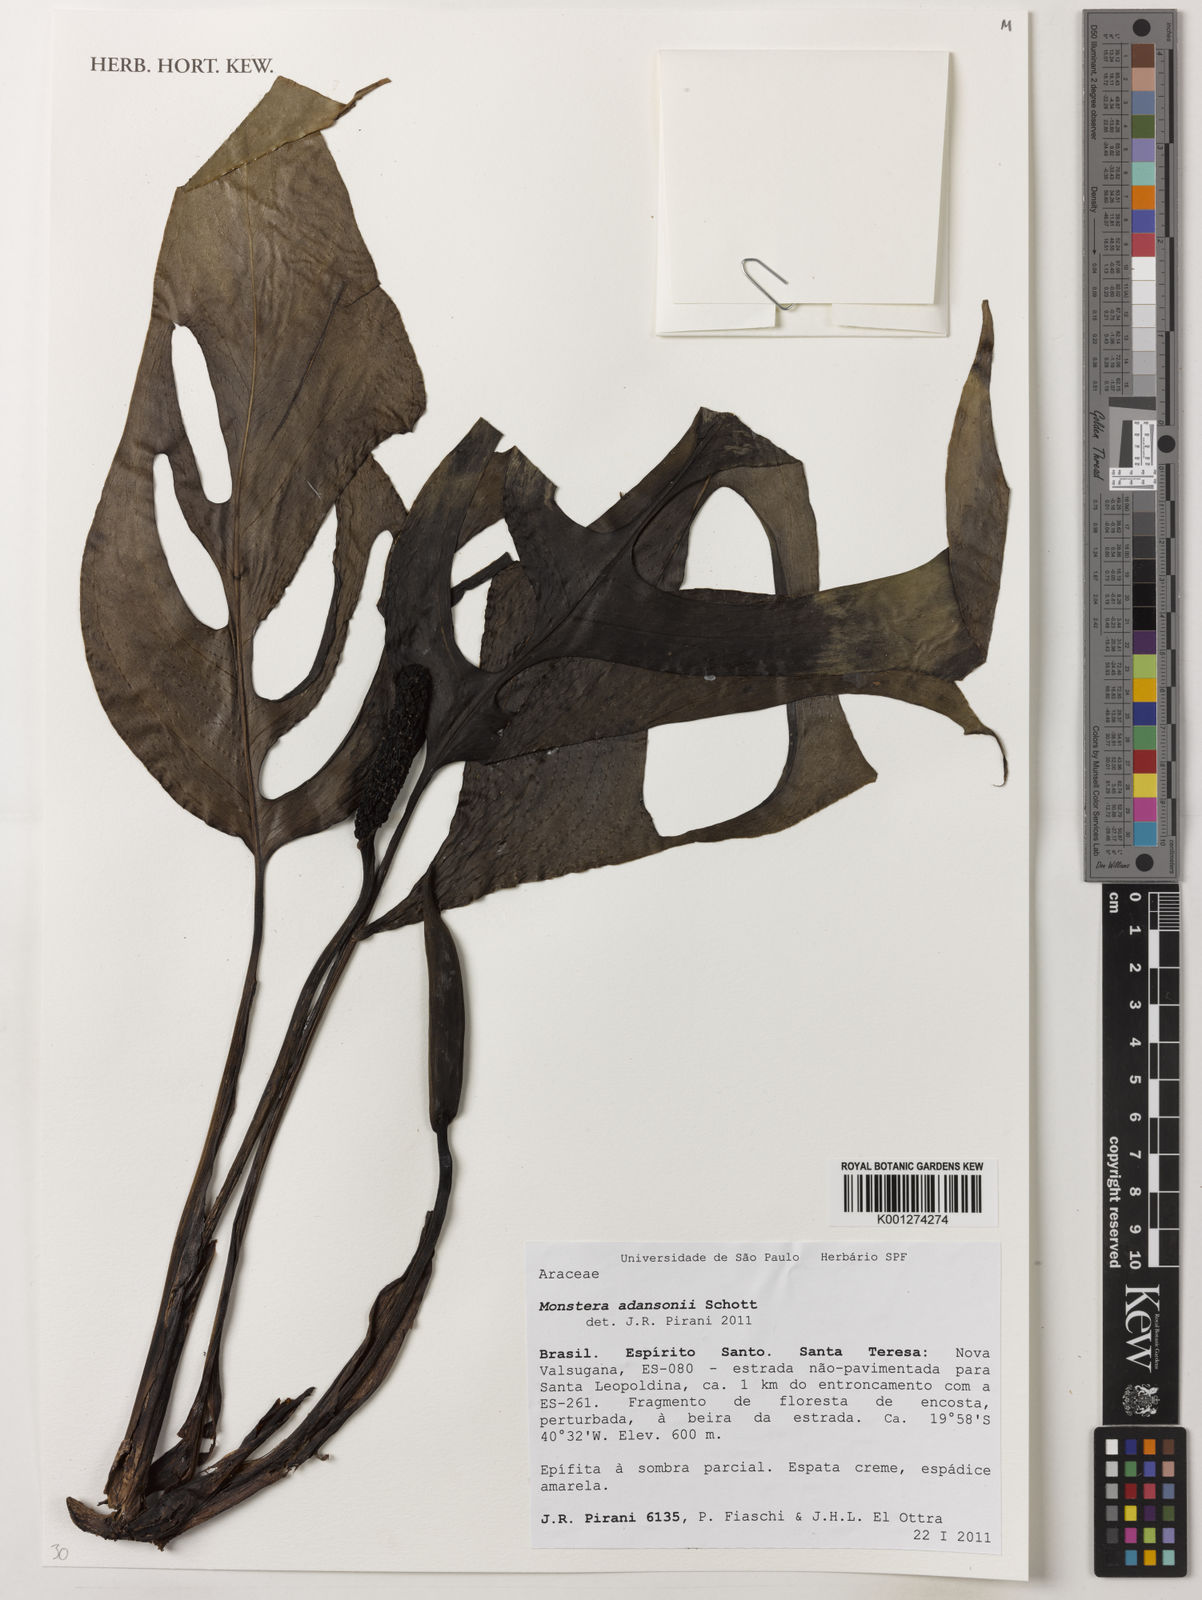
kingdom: Plantae
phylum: Tracheophyta
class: Liliopsida
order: Alismatales
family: Araceae
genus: Monstera
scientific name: Monstera adansonii
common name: Tarovine
